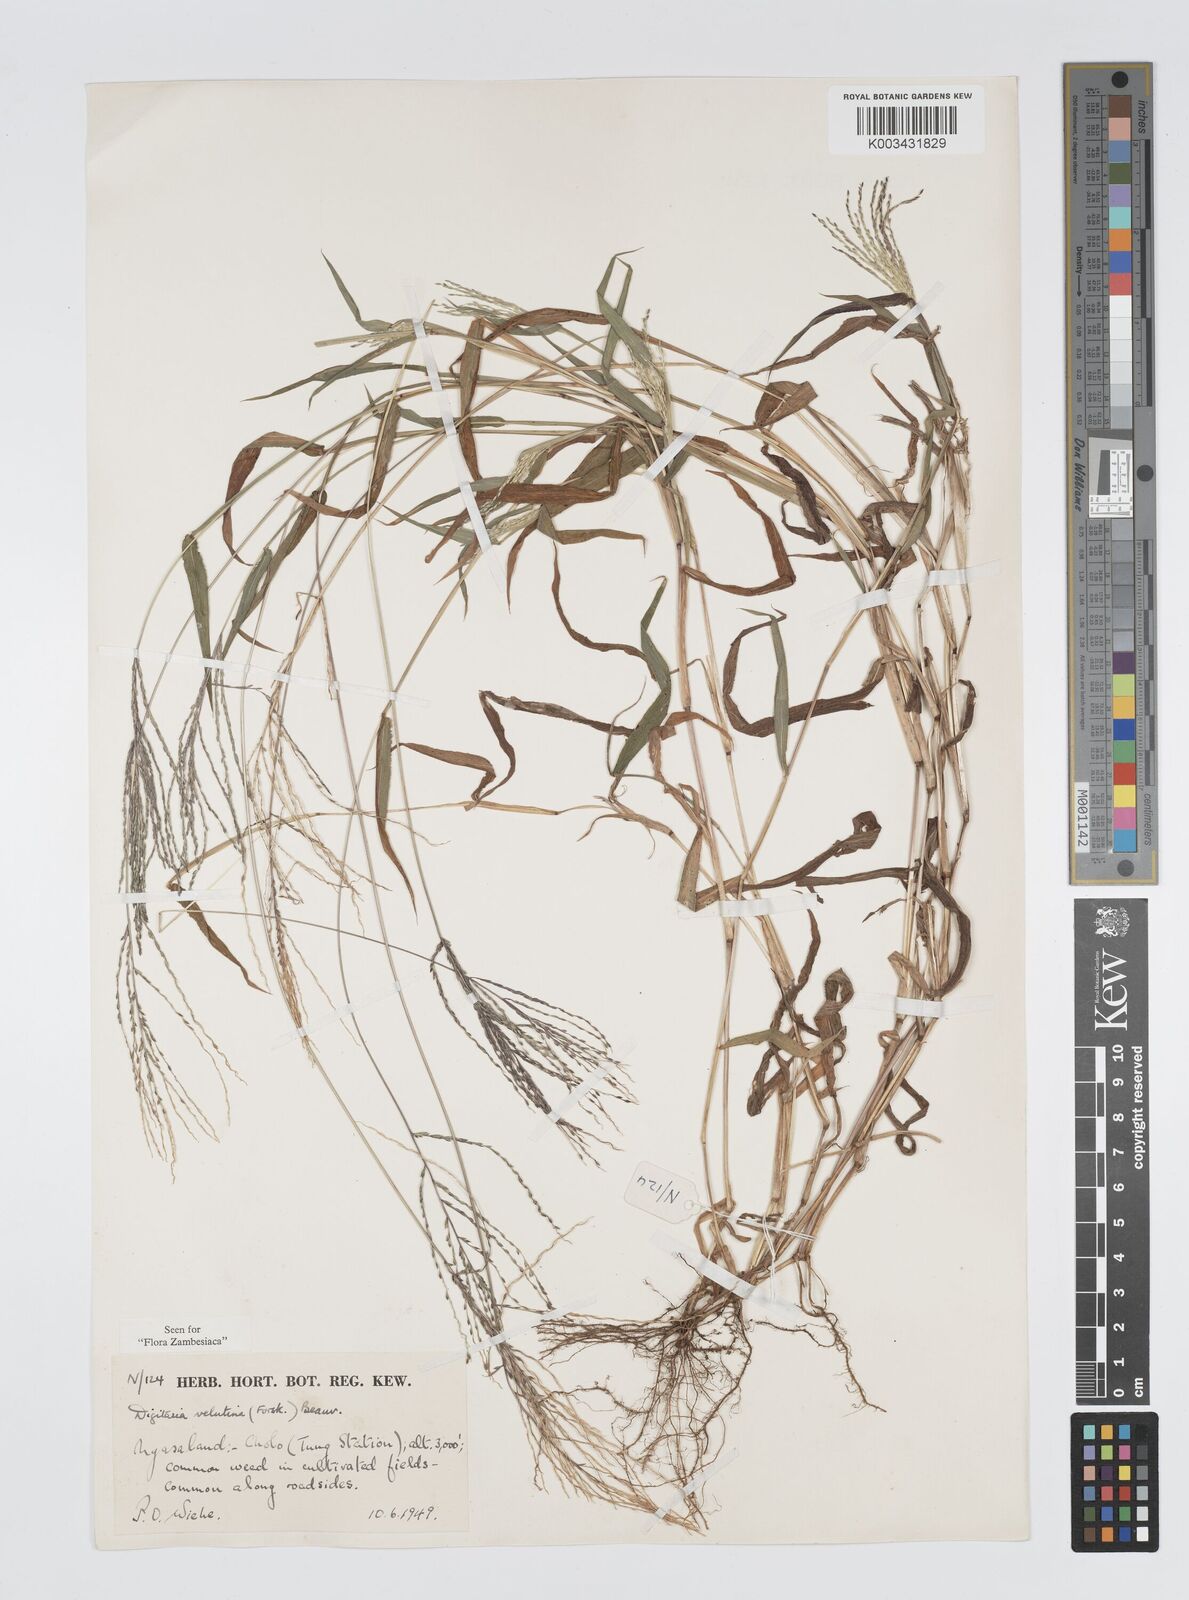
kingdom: Plantae
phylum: Tracheophyta
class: Liliopsida
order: Poales
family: Poaceae
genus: Digitaria
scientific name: Digitaria velutina
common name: Long-plume finger grass
